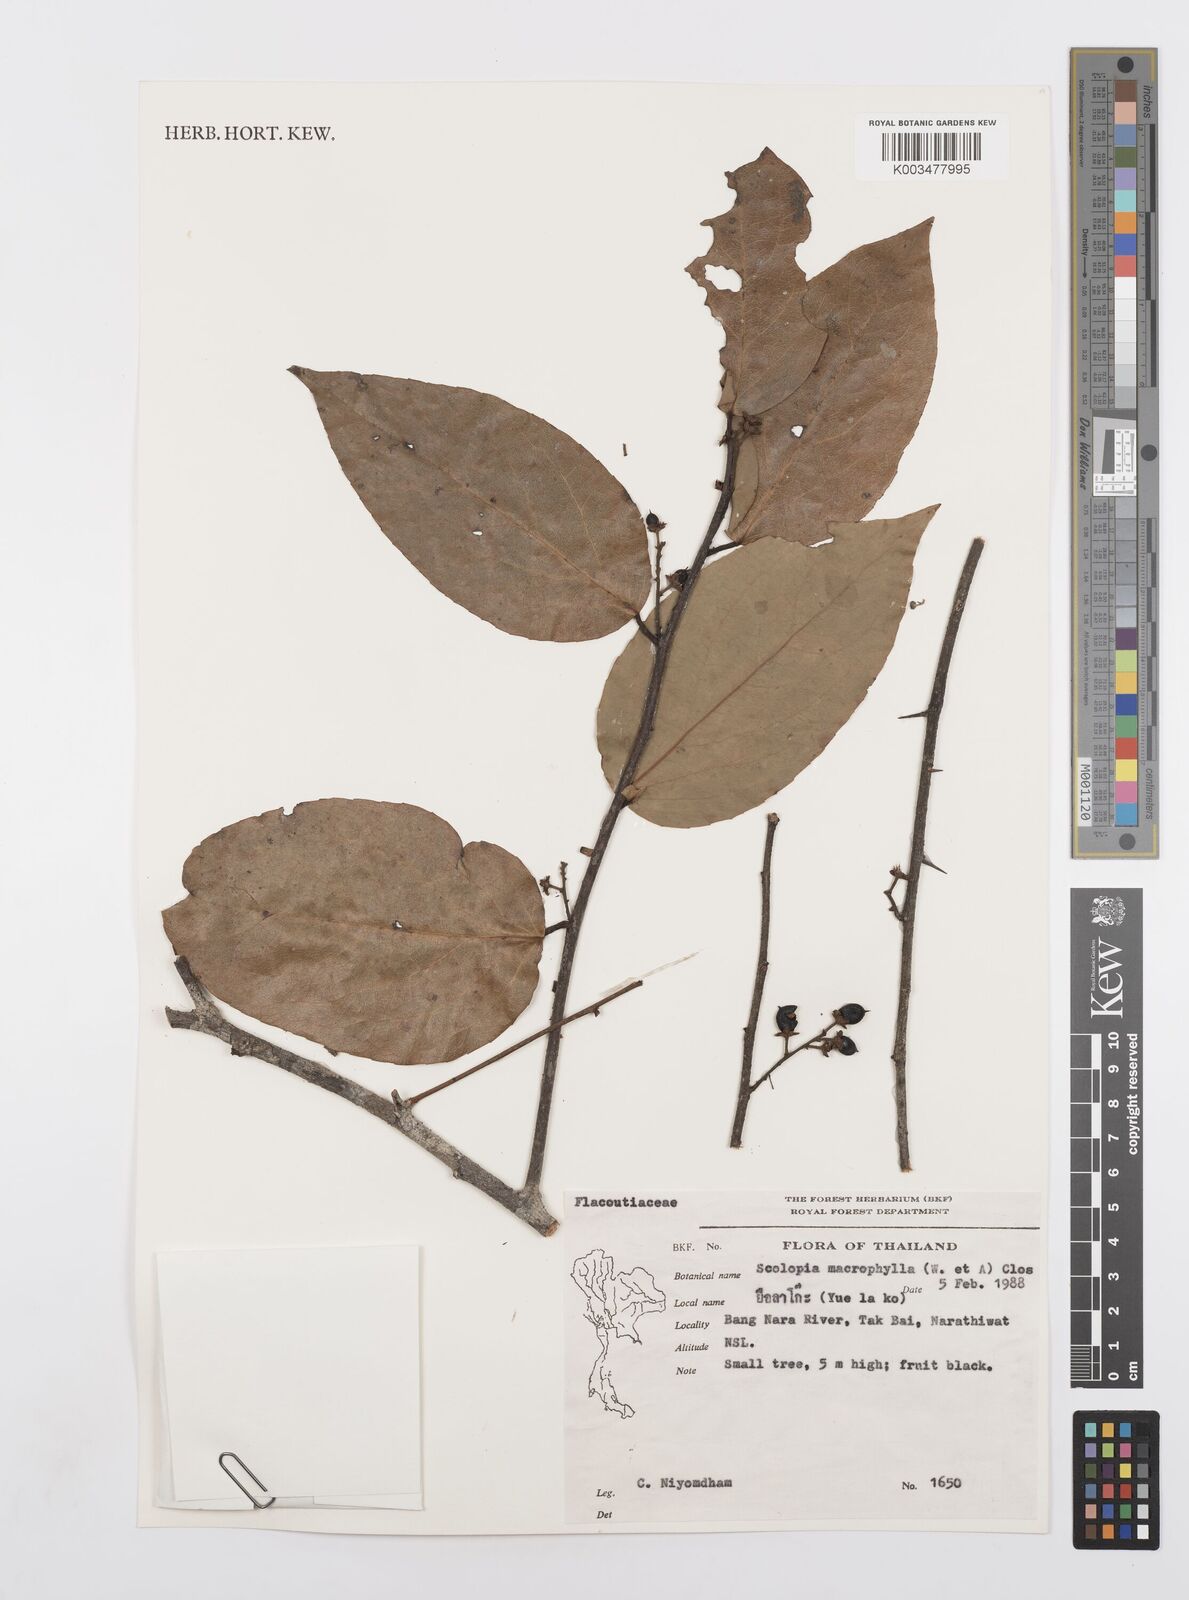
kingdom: Plantae
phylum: Tracheophyta
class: Magnoliopsida
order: Malpighiales
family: Salicaceae
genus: Scolopia
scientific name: Scolopia macrophylla
